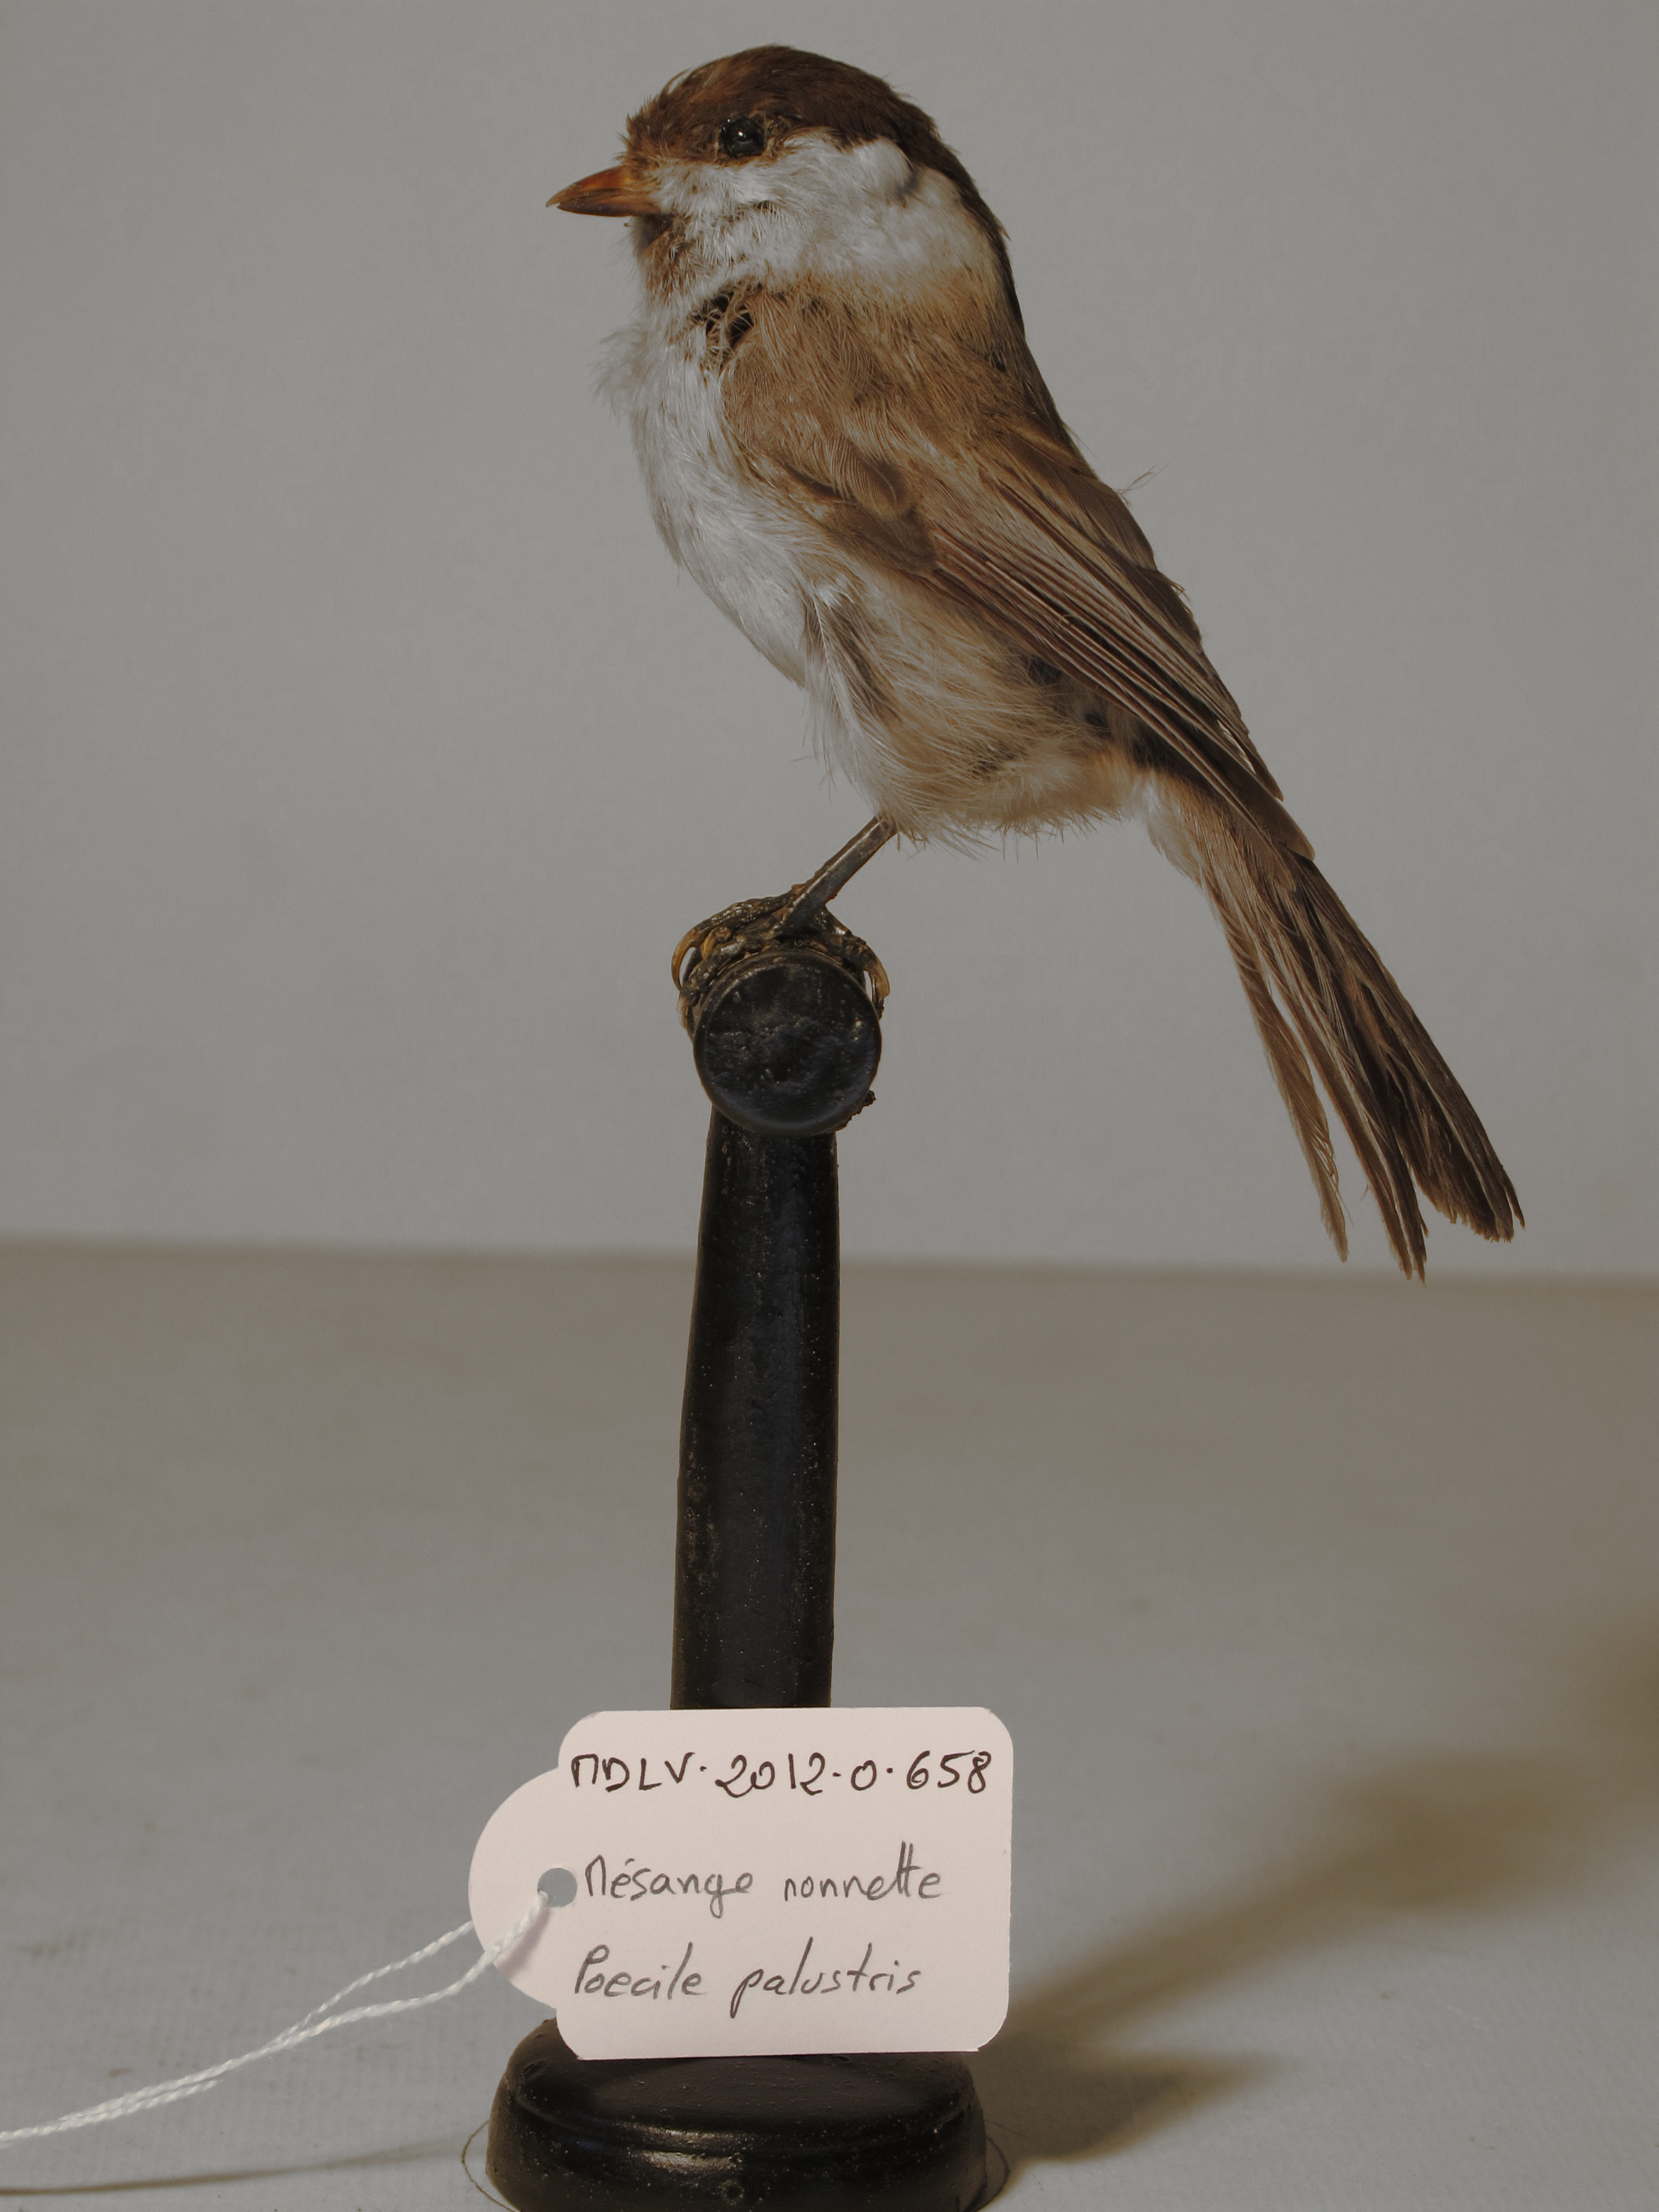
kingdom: Animalia
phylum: Chordata
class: Aves
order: Passeriformes
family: Paridae
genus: Poecile
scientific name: Poecile palustris
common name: Marsh Tit
